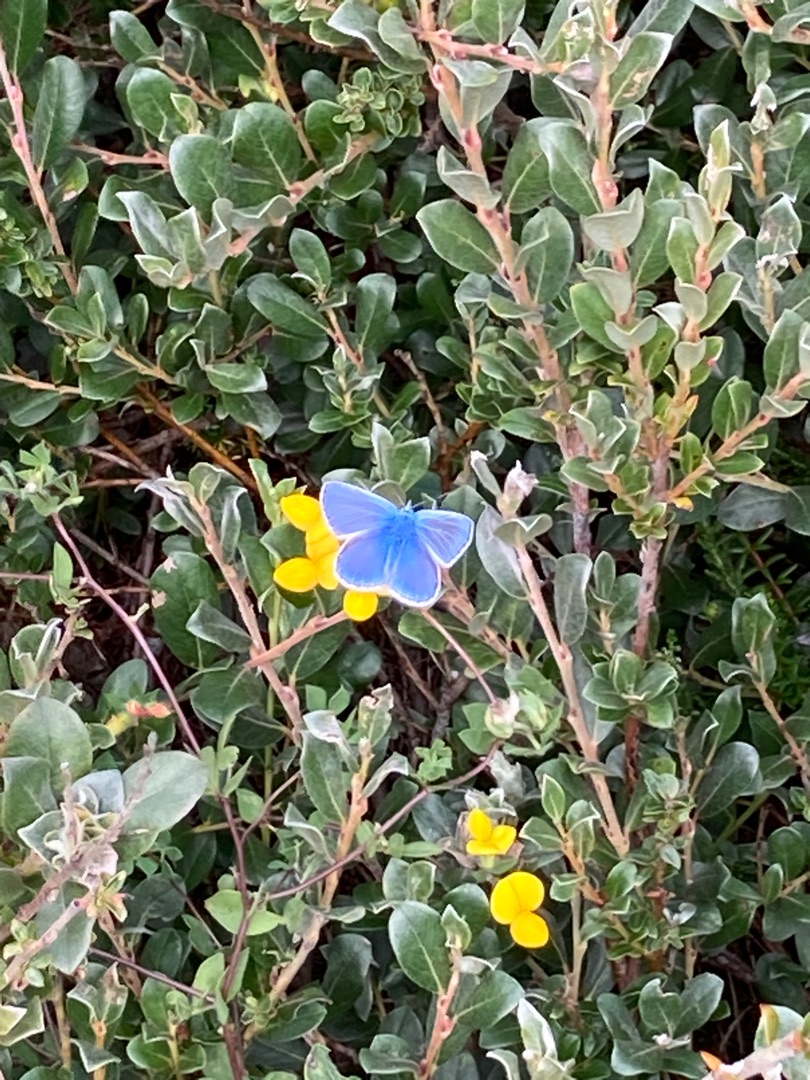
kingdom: Animalia
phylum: Arthropoda
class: Insecta
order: Lepidoptera
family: Lycaenidae
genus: Polyommatus
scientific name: Polyommatus icarus
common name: Almindelig blåfugl
